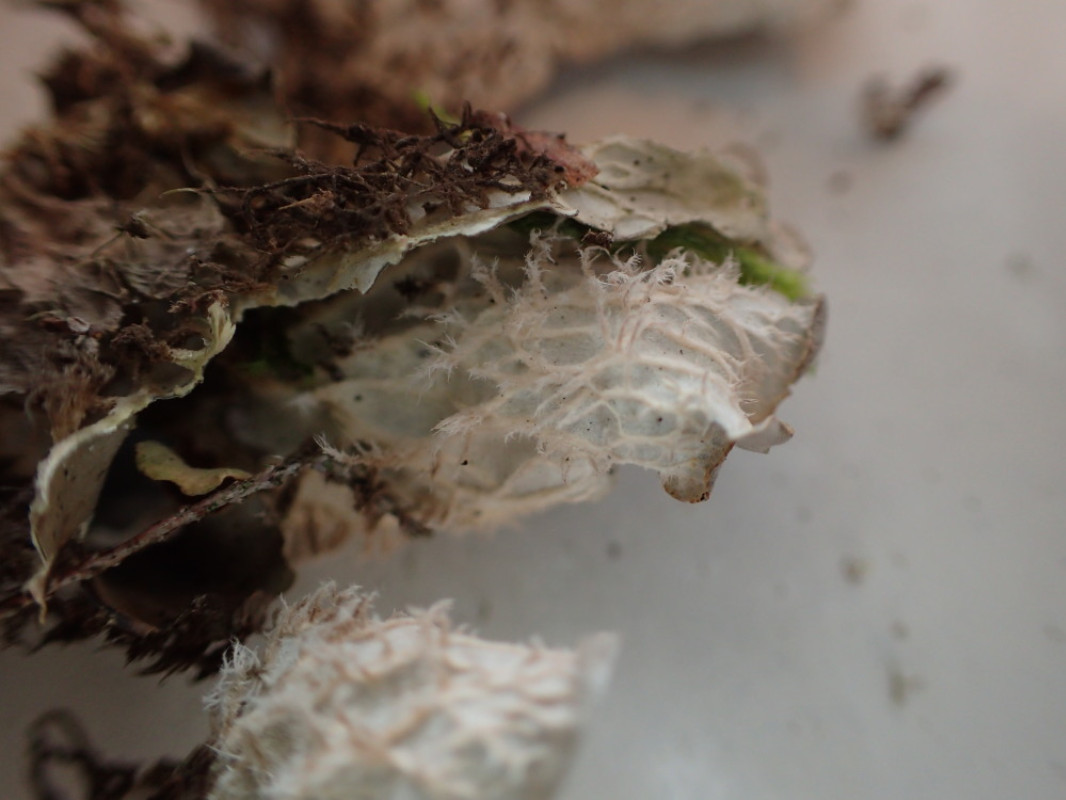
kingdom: Fungi
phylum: Ascomycota
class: Lecanoromycetes
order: Peltigerales
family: Peltigeraceae
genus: Peltigera
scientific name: Peltigera membranacea
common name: tynd skjoldlav
